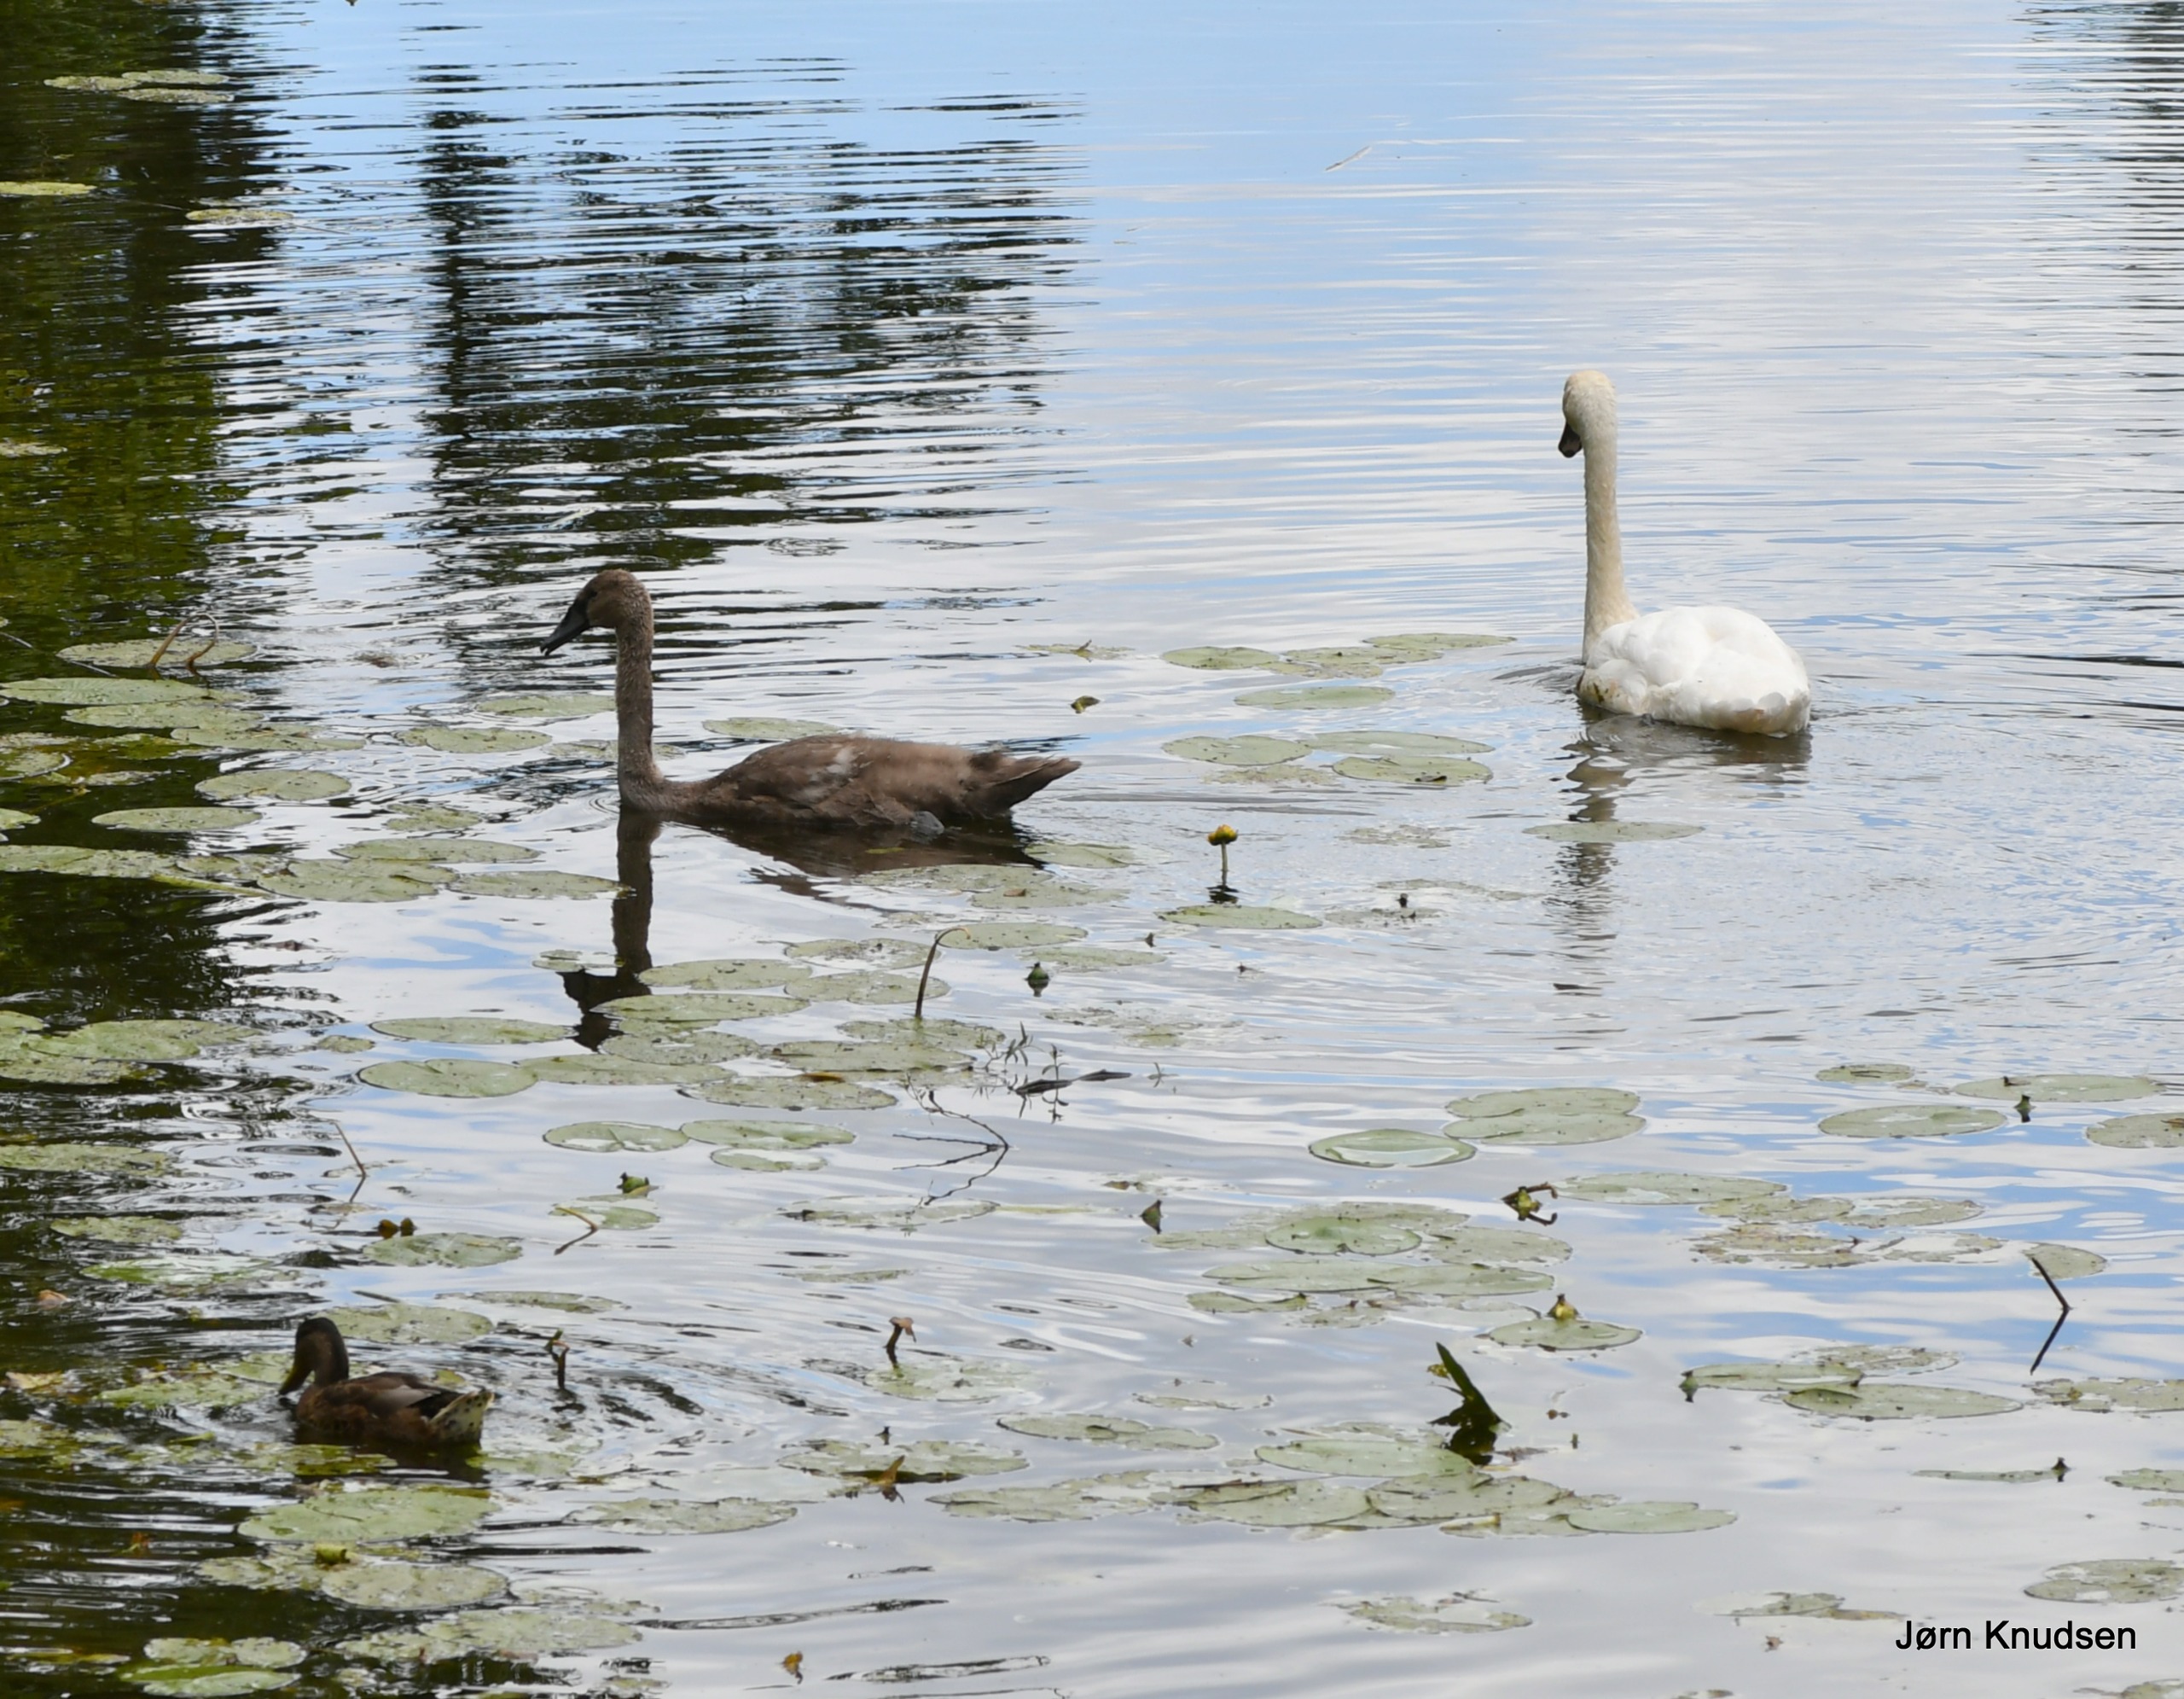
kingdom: Animalia
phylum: Chordata
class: Aves
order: Anseriformes
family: Anatidae
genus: Cygnus
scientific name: Cygnus olor
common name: Knopsvane
